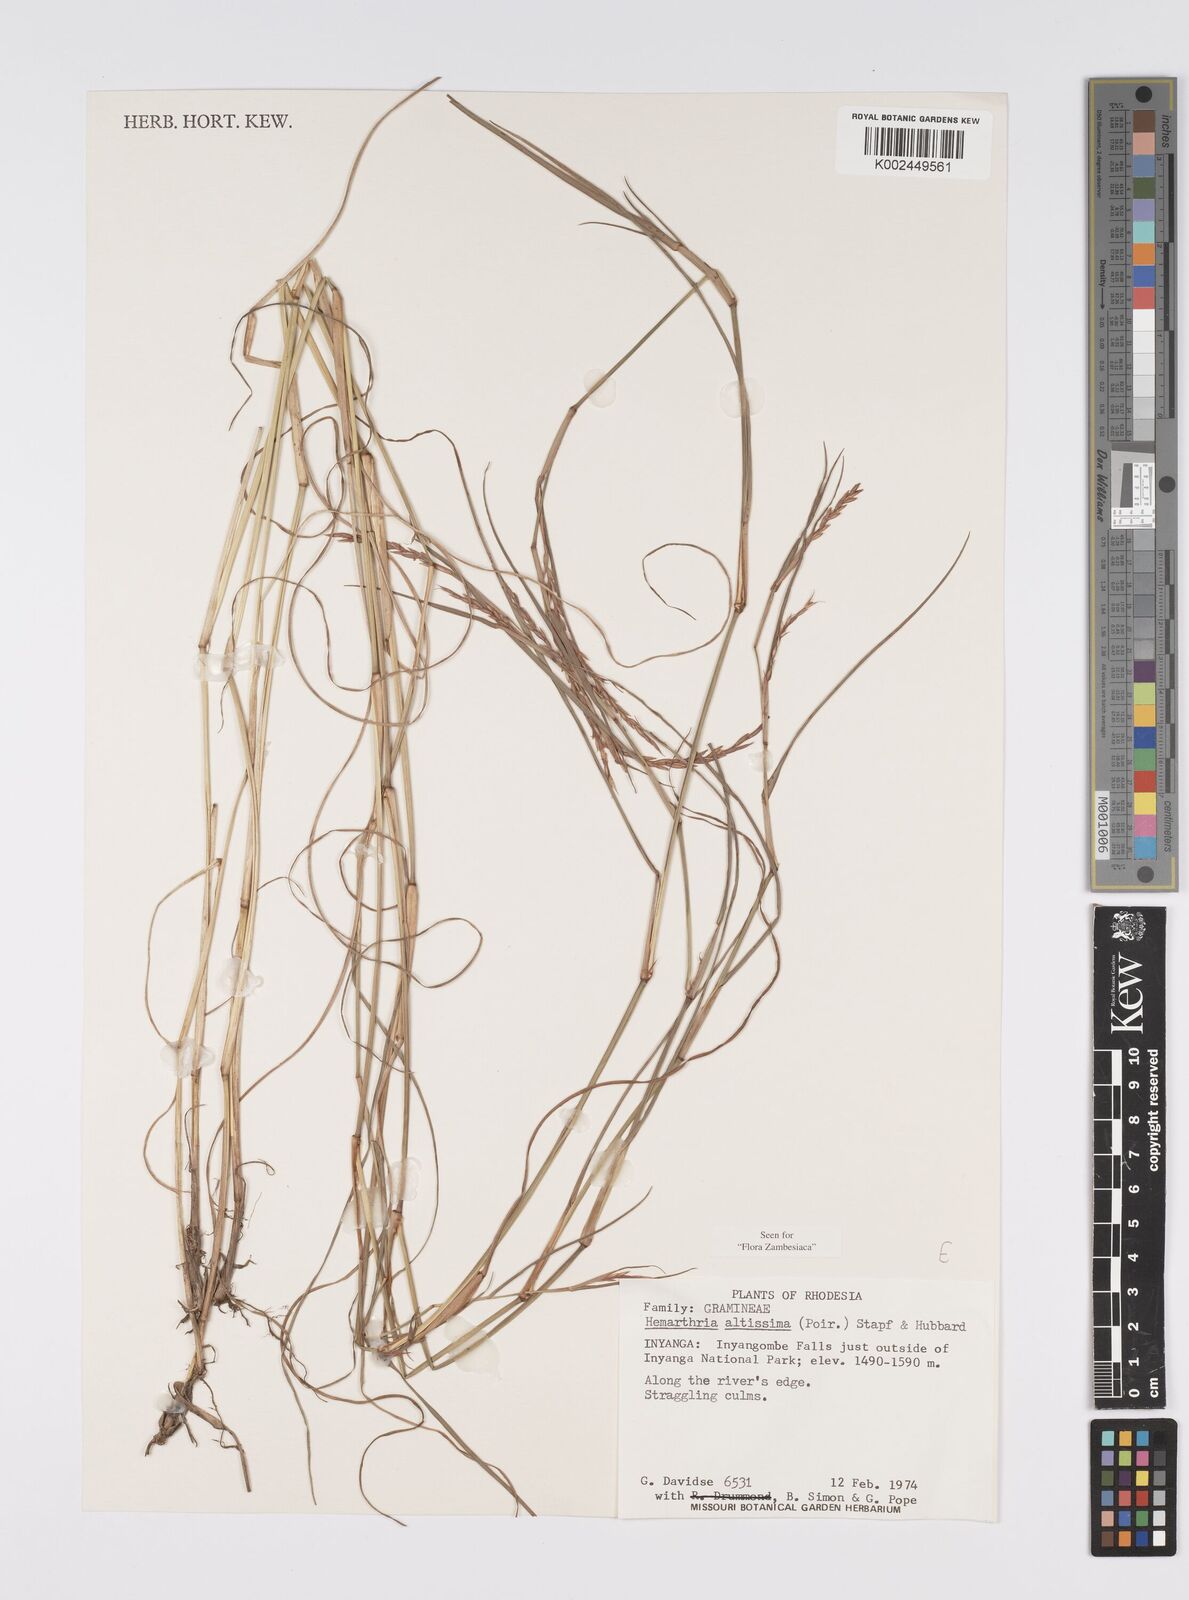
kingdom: Plantae
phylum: Tracheophyta
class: Liliopsida
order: Poales
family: Poaceae
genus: Hemarthria
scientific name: Hemarthria altissima
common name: African jointgrass
